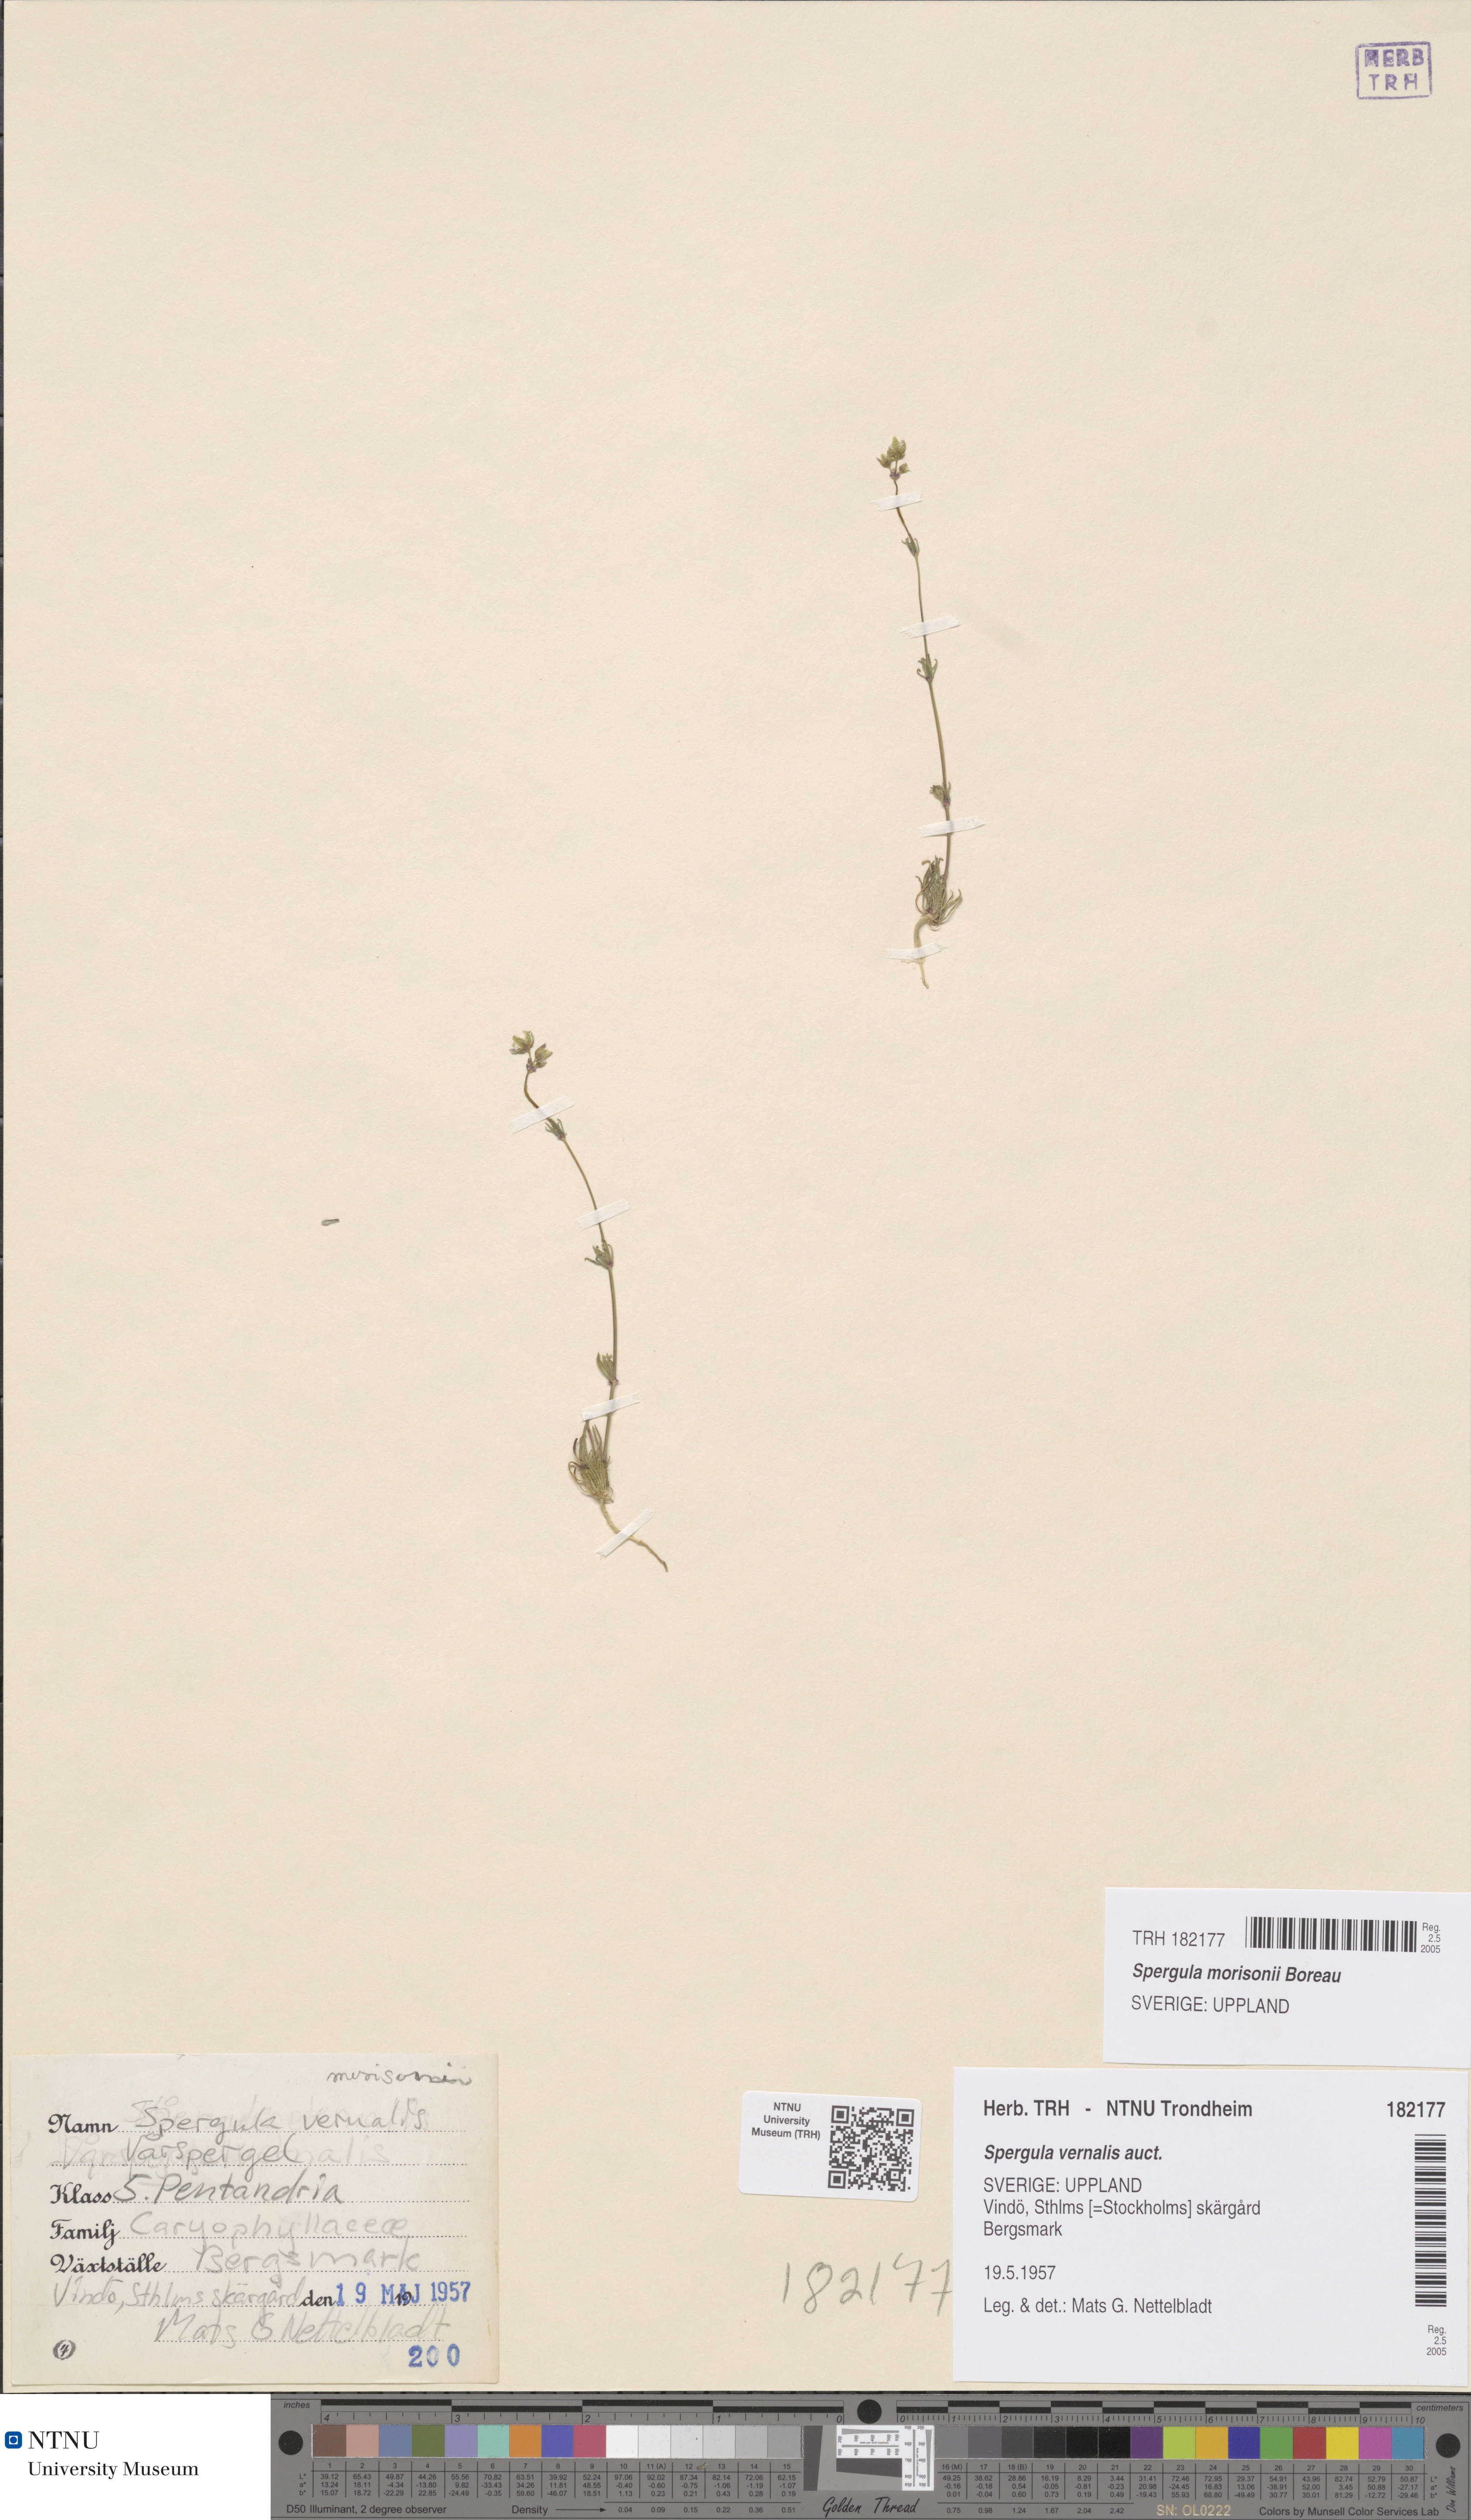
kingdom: Plantae
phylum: Tracheophyta
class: Magnoliopsida
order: Caryophyllales
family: Caryophyllaceae
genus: Spergula
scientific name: Spergula morisonii
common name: Pearlwort spurrey
